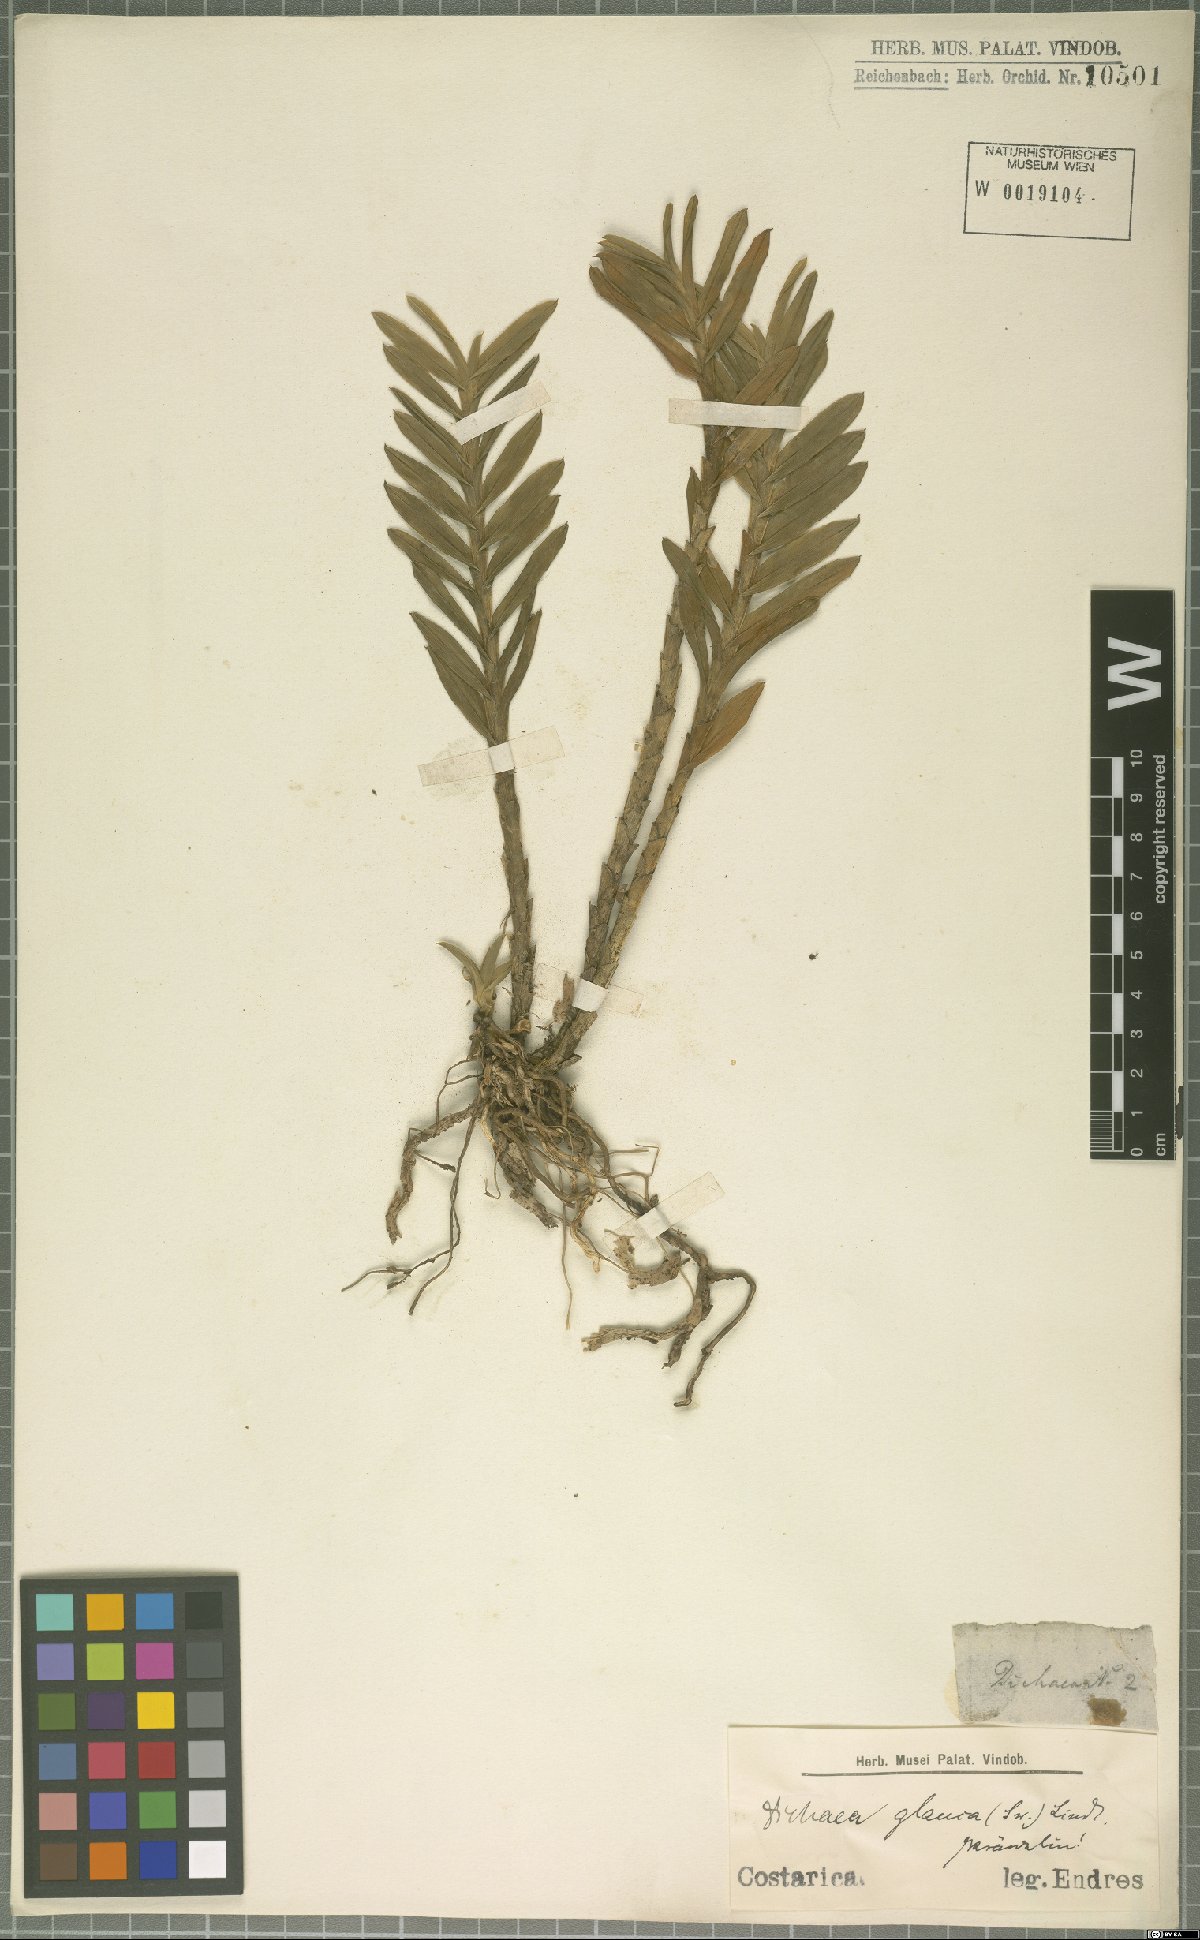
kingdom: Plantae
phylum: Tracheophyta
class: Liliopsida
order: Asparagales
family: Orchidaceae
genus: Dichaea
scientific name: Dichaea glauca
